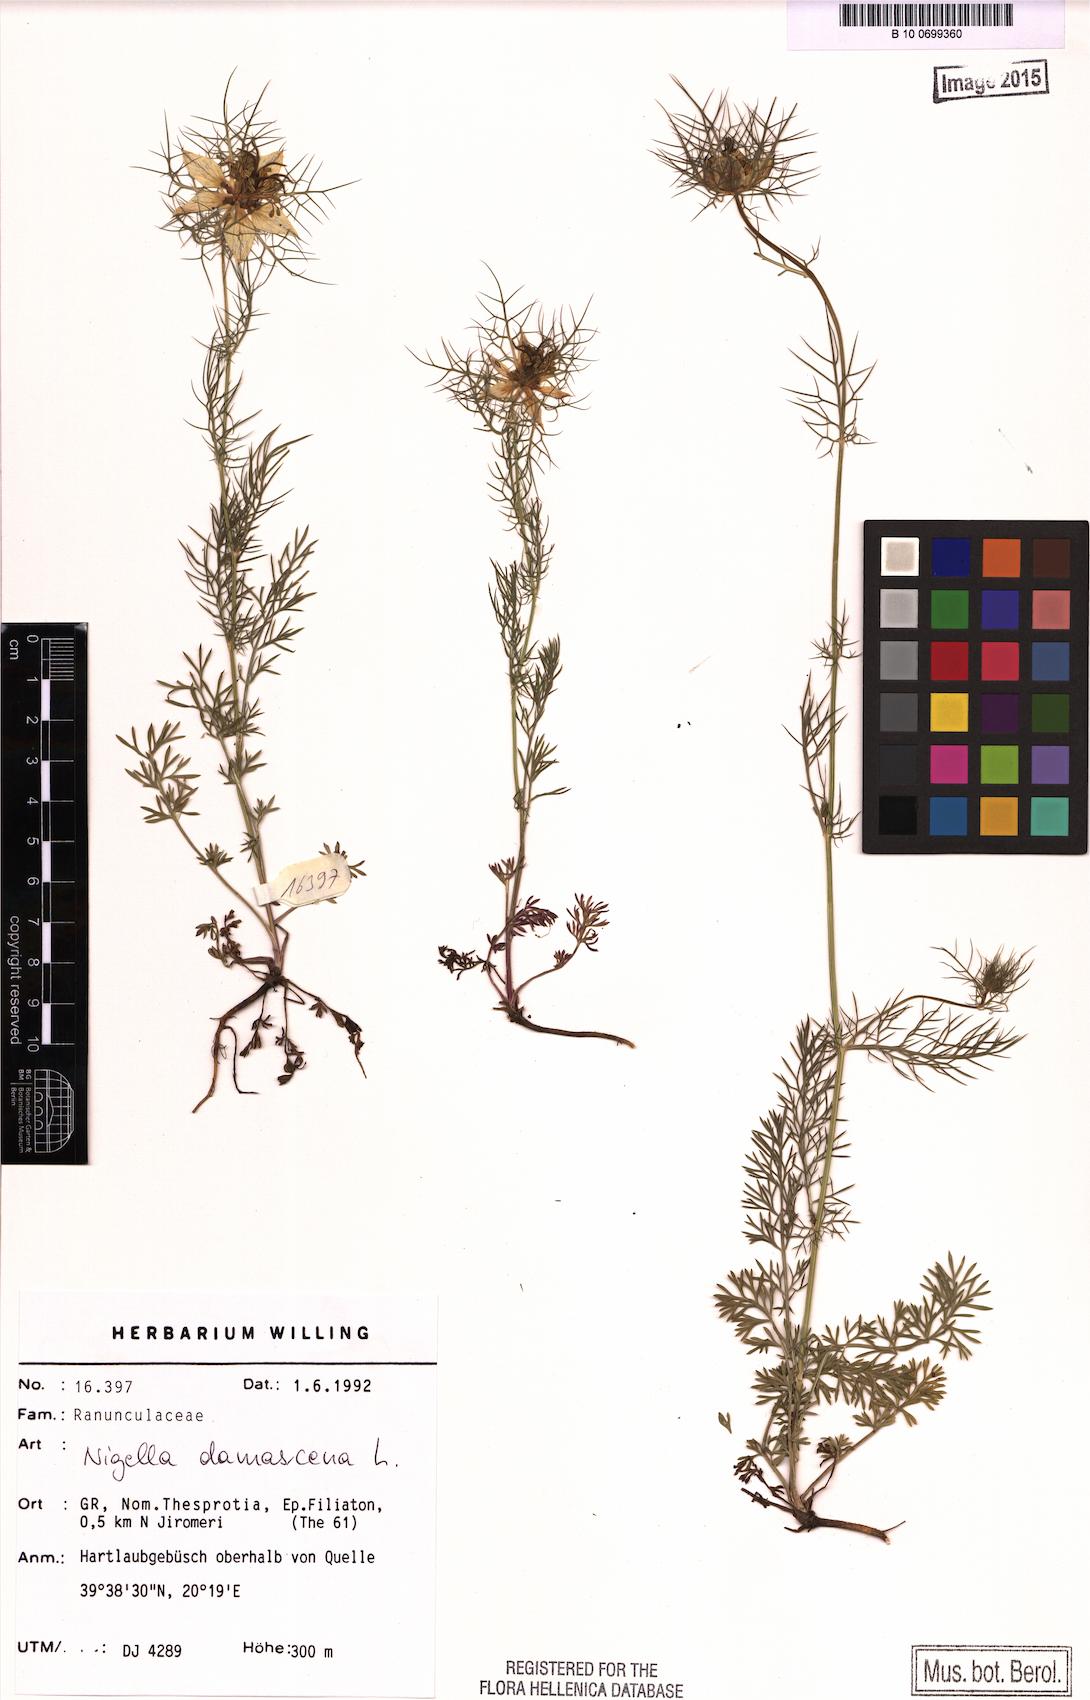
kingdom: Plantae
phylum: Tracheophyta
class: Magnoliopsida
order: Ranunculales
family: Ranunculaceae
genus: Nigella
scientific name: Nigella damascena
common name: Love-in-a-mist
